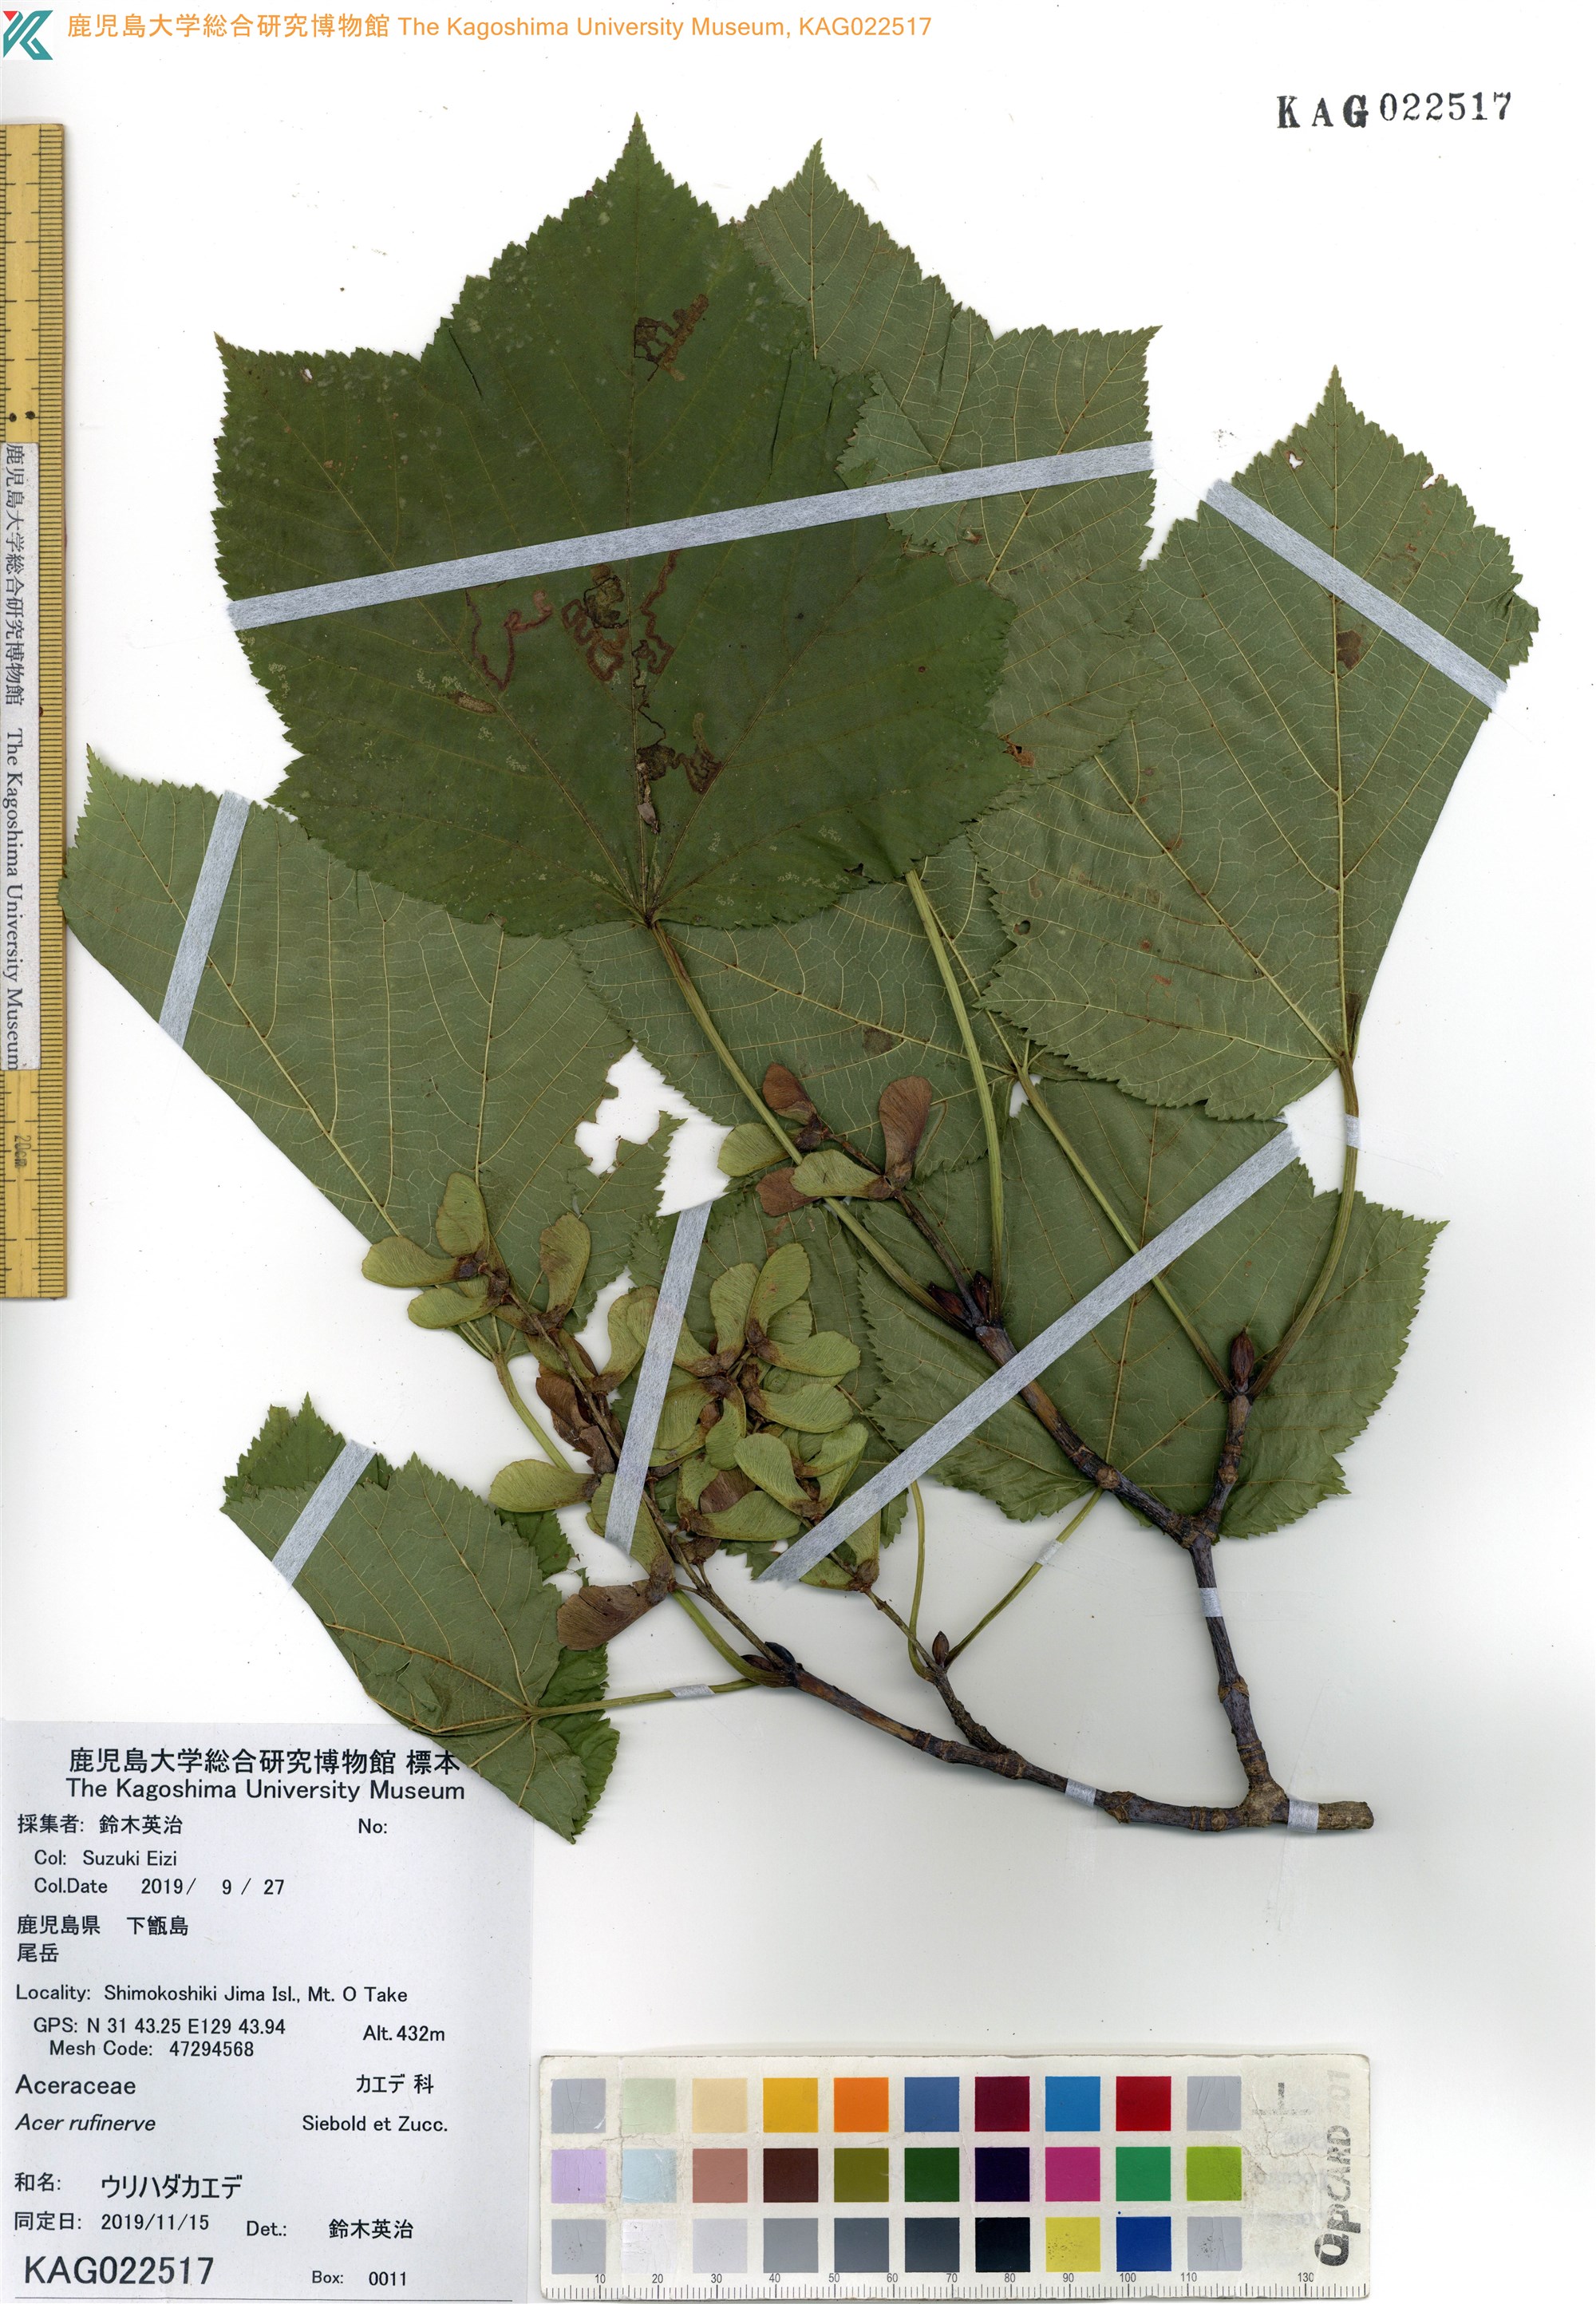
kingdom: Plantae
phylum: Tracheophyta
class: Magnoliopsida
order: Sapindales
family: Sapindaceae
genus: Acer
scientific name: Acer rufinerve
